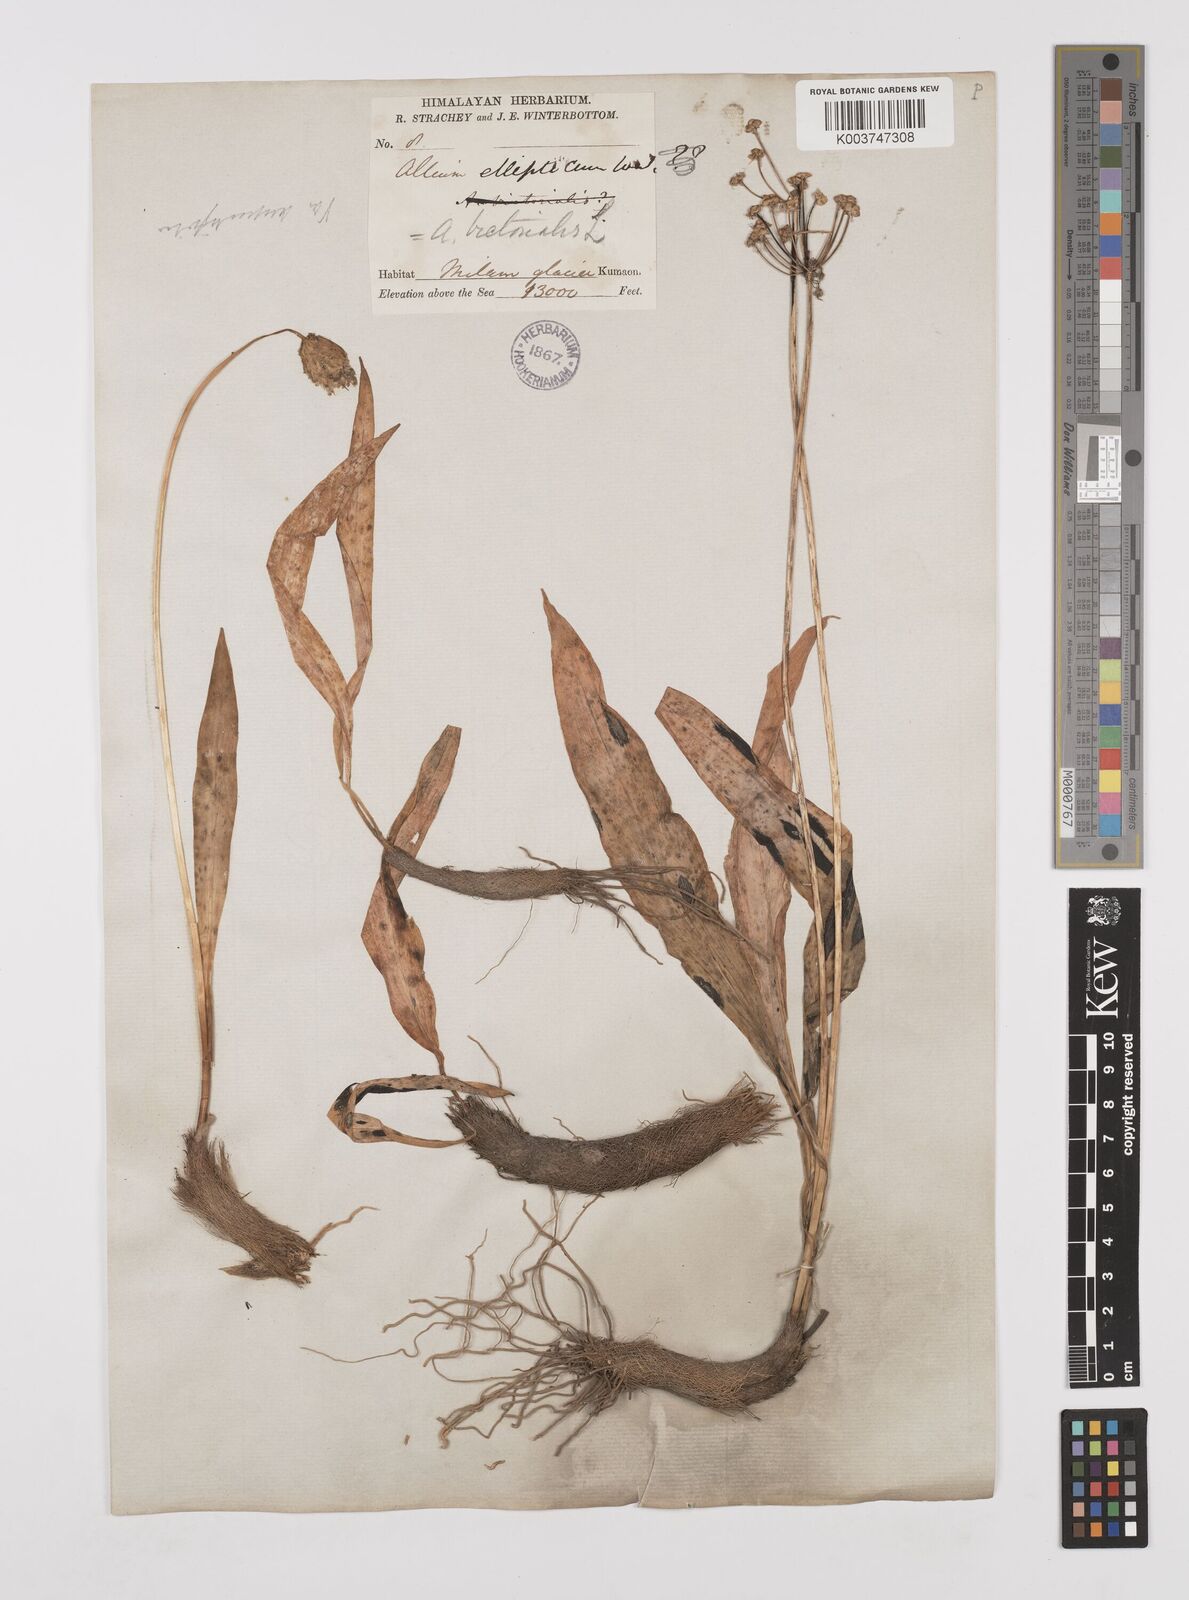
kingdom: Plantae
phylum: Tracheophyta
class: Liliopsida
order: Asparagales
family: Amaryllidaceae
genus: Allium
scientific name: Allium prattii
